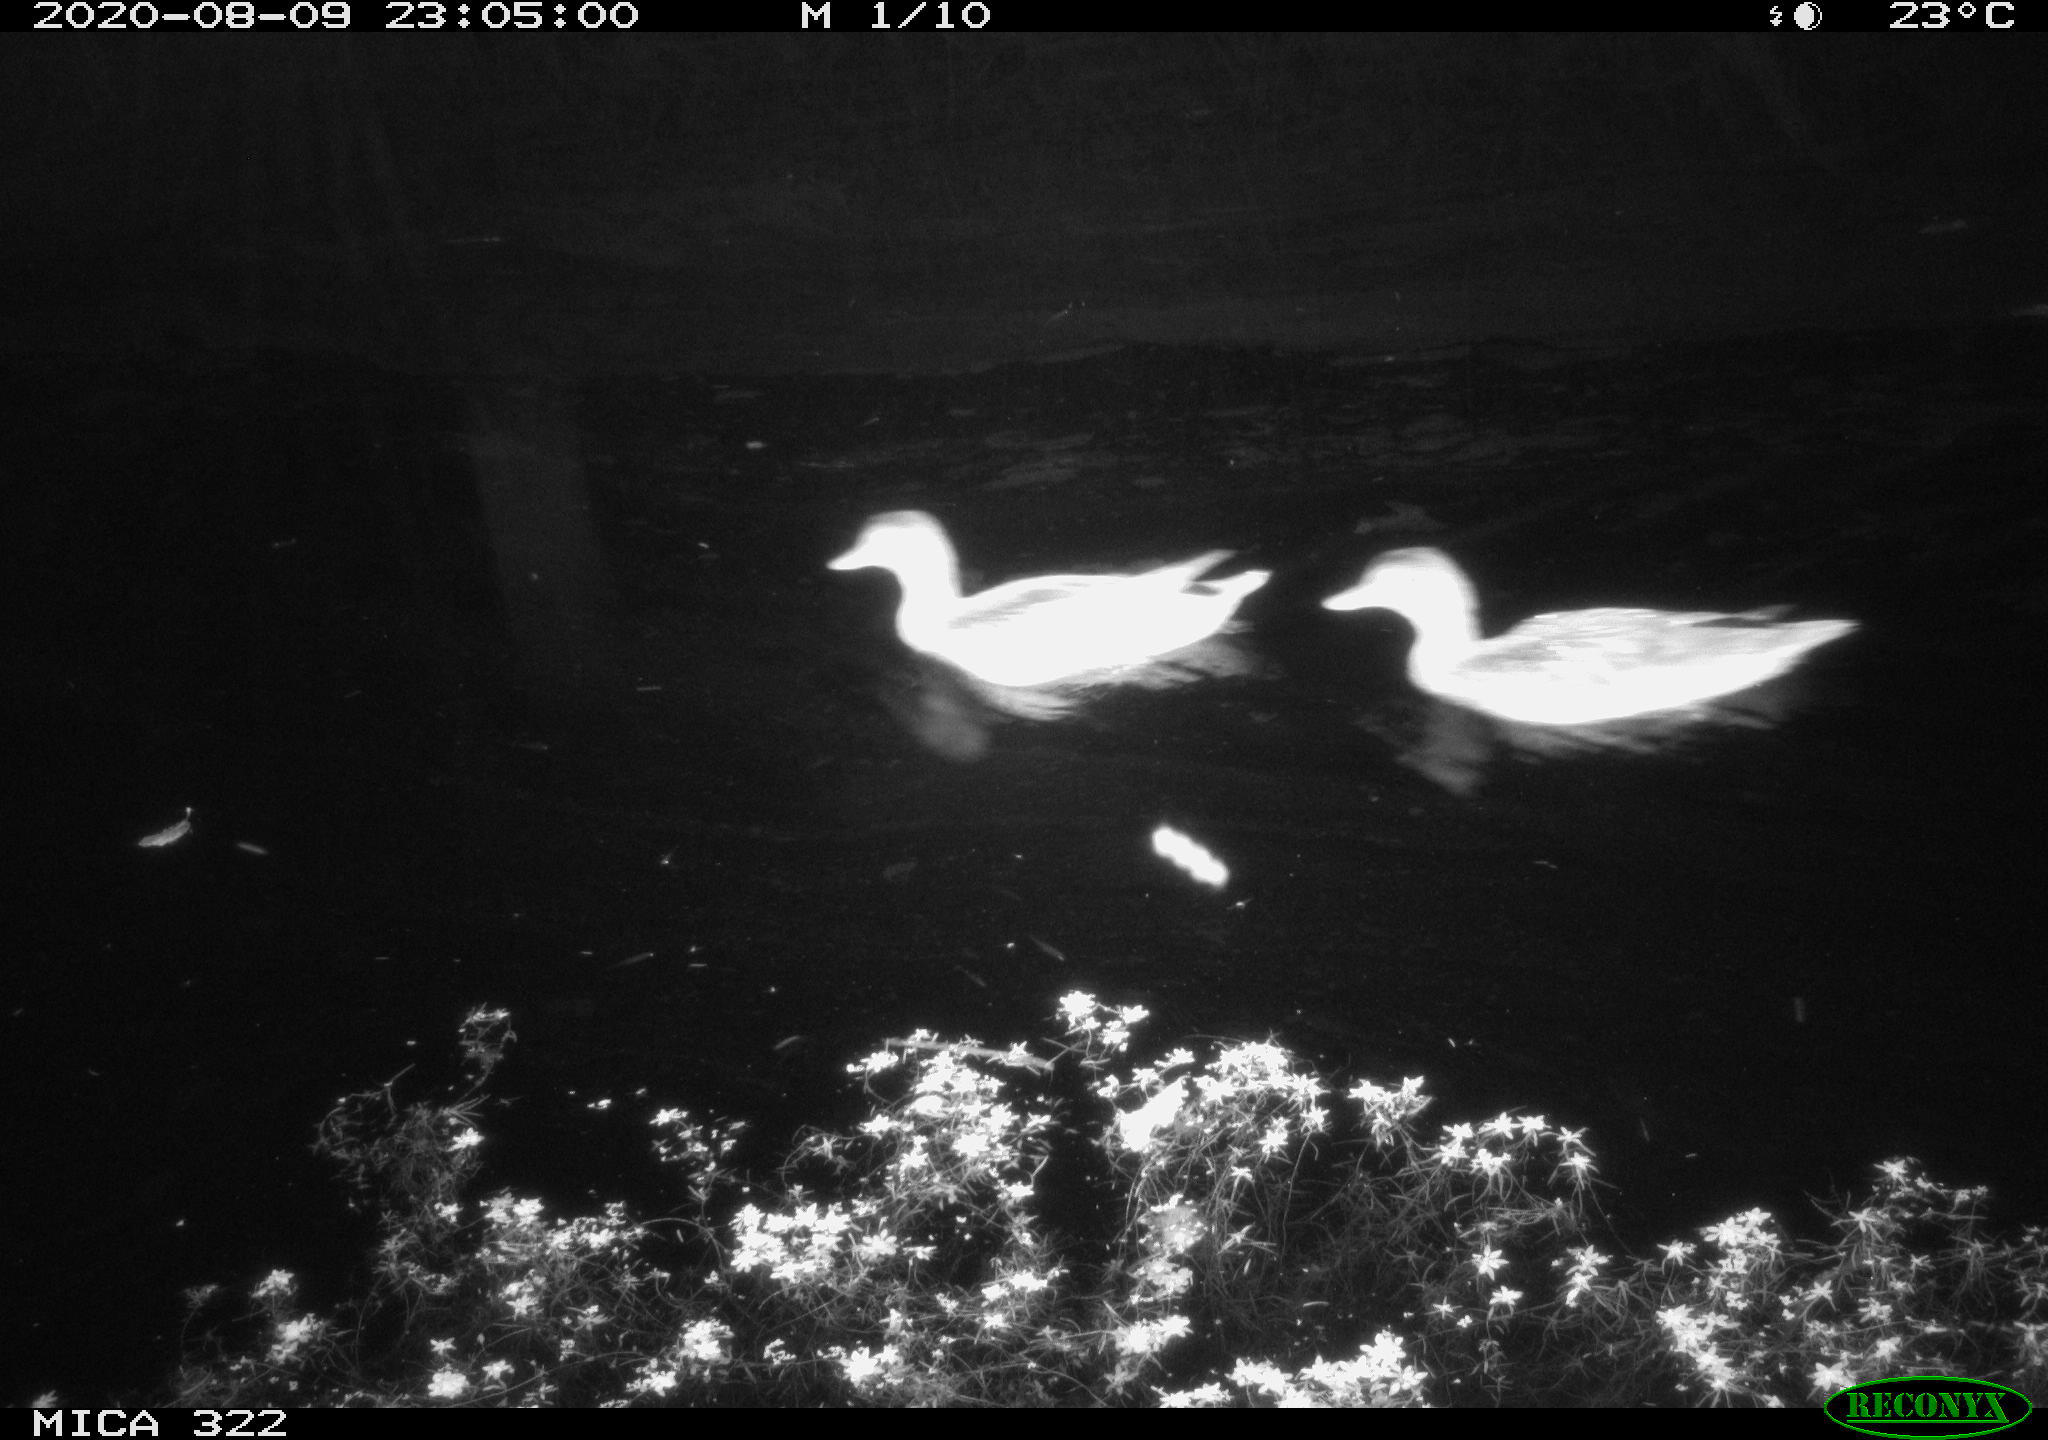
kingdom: Animalia
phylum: Chordata
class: Aves
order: Anseriformes
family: Anatidae
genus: Mareca
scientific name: Mareca strepera
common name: Gadwall
